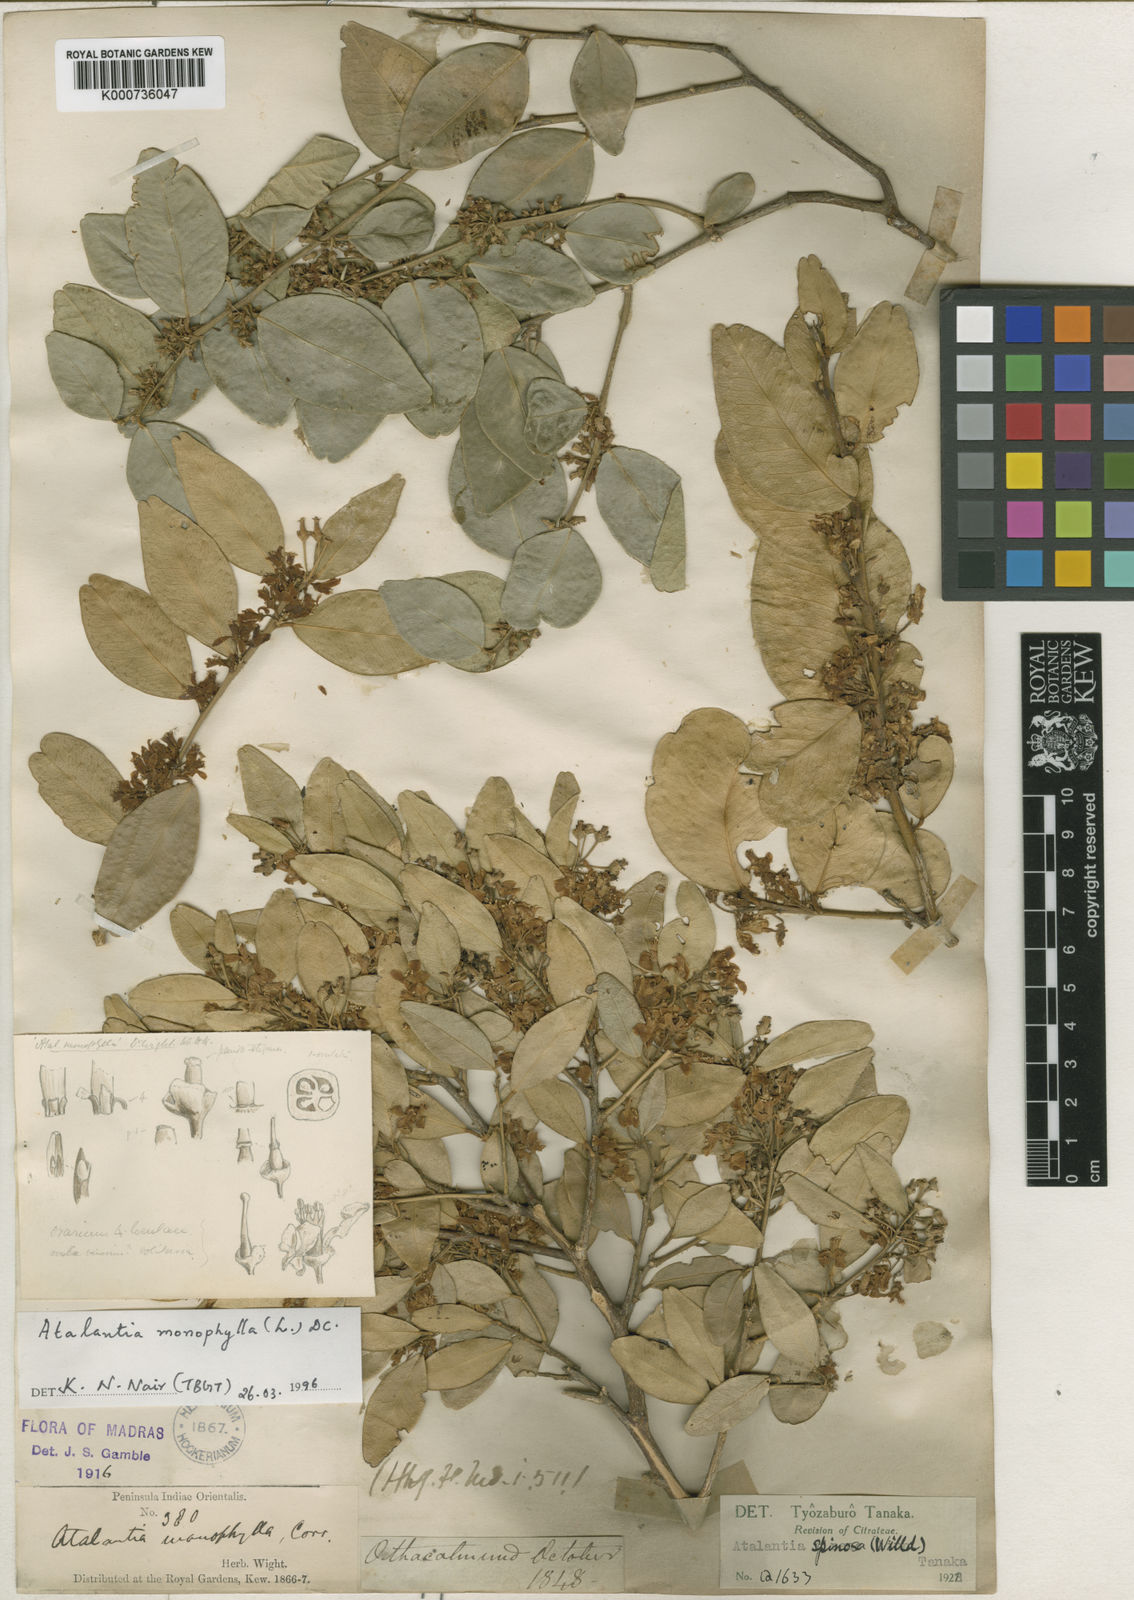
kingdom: Plantae
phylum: Tracheophyta
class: Magnoliopsida
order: Sapindales
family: Rutaceae
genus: Atalantia
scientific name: Atalantia monophylla
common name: Indian-atalantia
